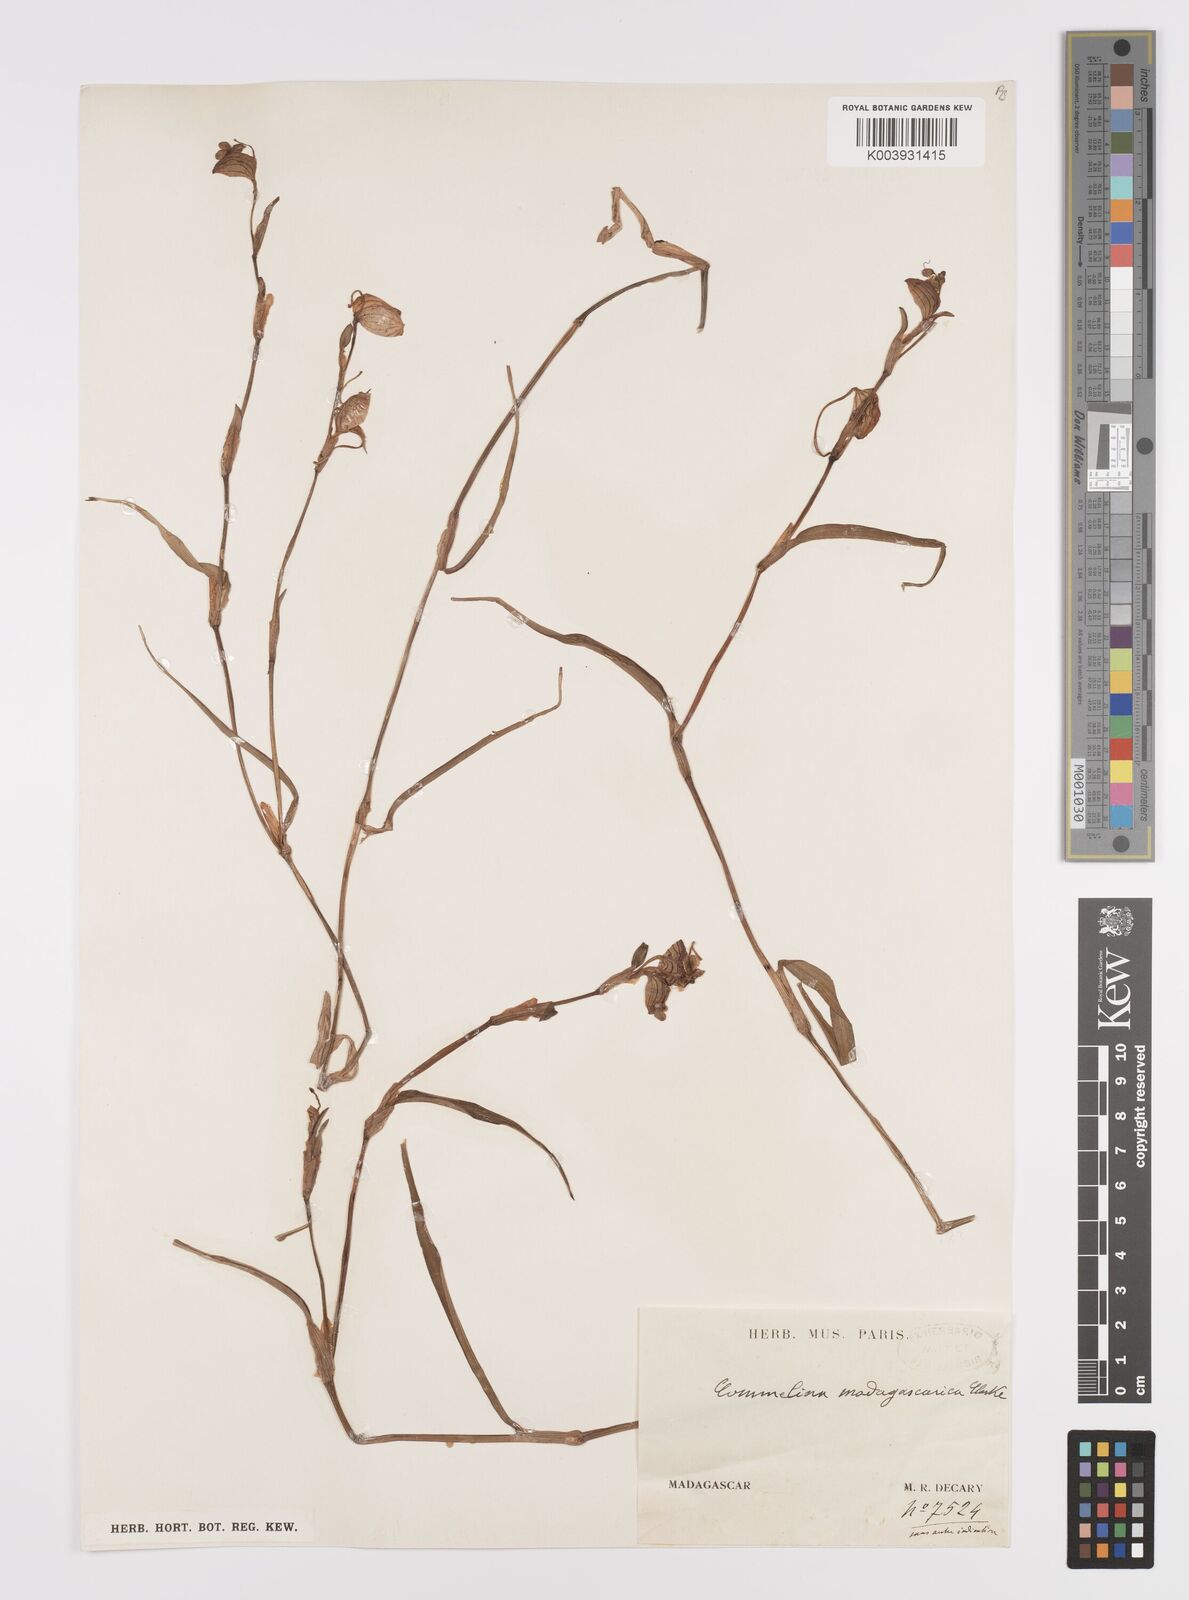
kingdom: Plantae
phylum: Tracheophyta
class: Liliopsida
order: Commelinales
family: Commelinaceae
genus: Commelina
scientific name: Commelina madagascarica
